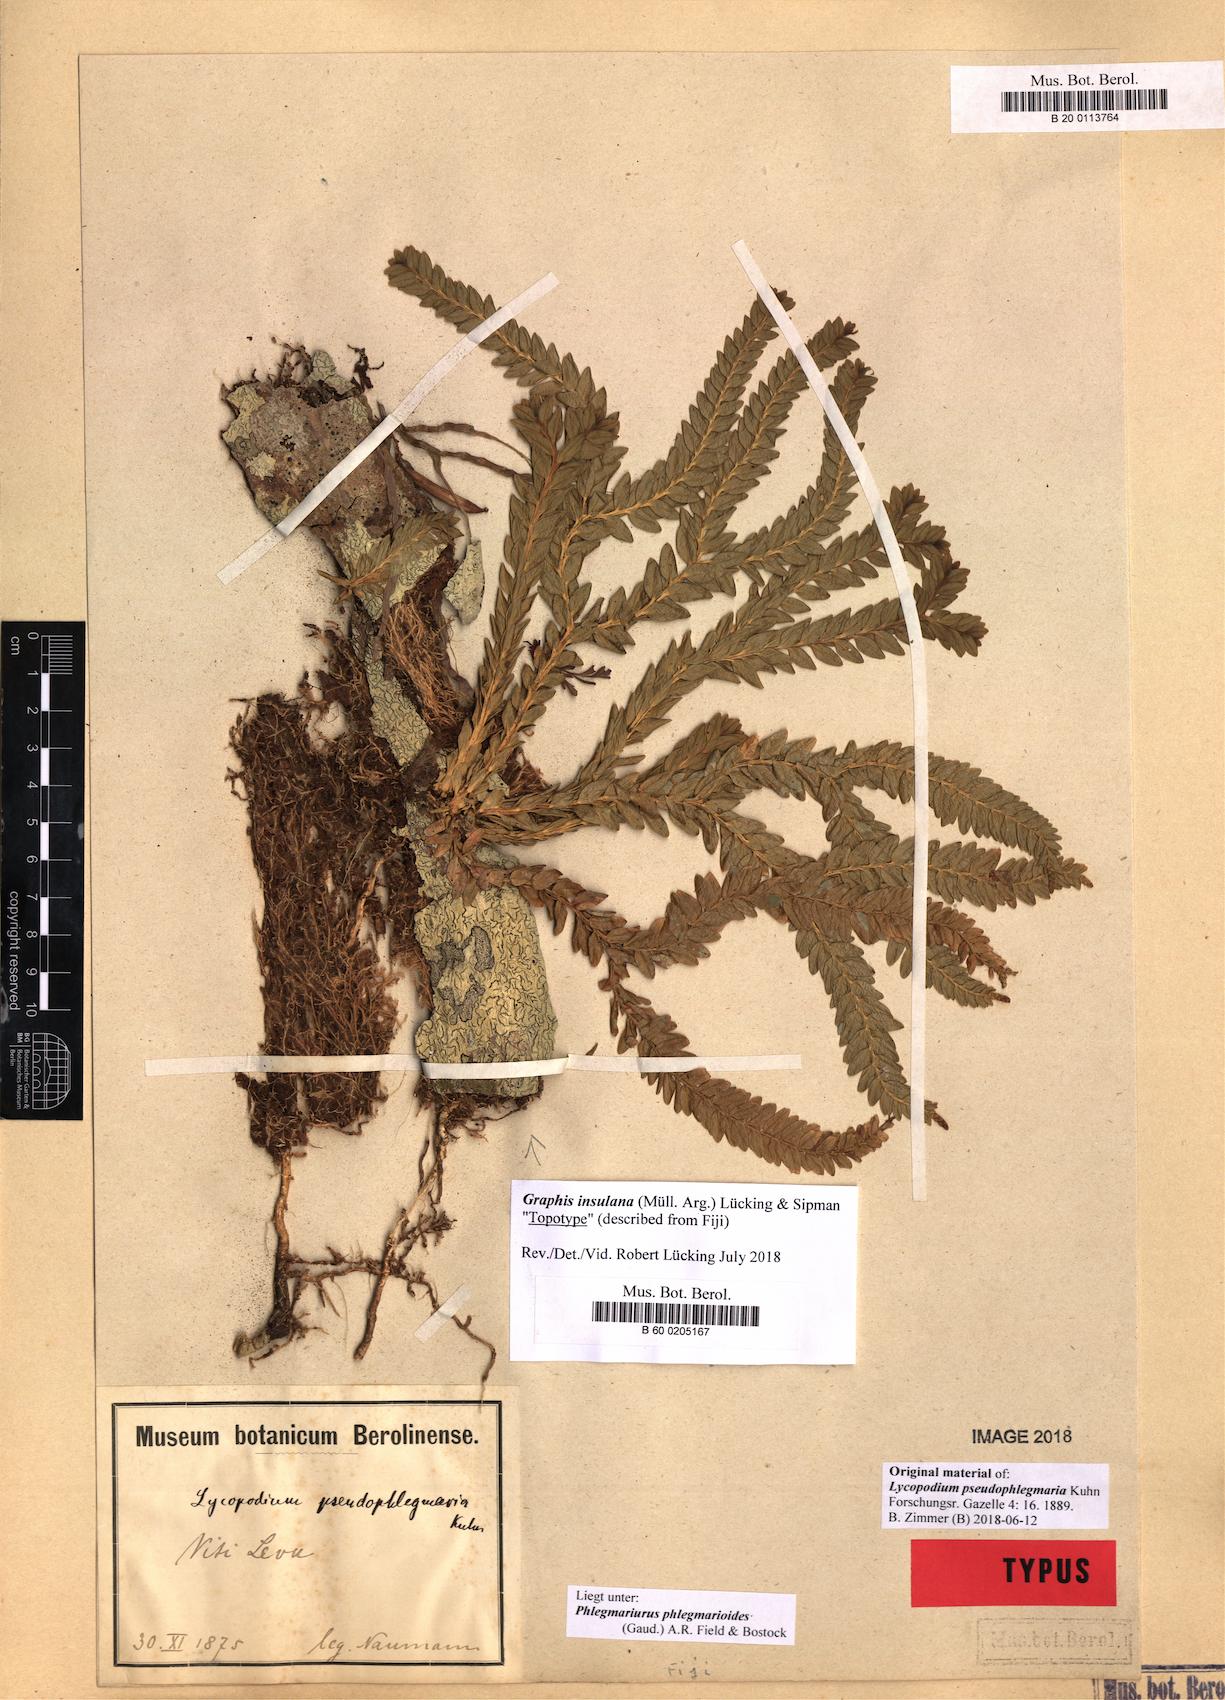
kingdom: Plantae
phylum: Tracheophyta
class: Lycopodiopsida
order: Lycopodiales
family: Lycopodiaceae
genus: Phlegmariurus
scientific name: Phlegmariurus phlegmarioides
